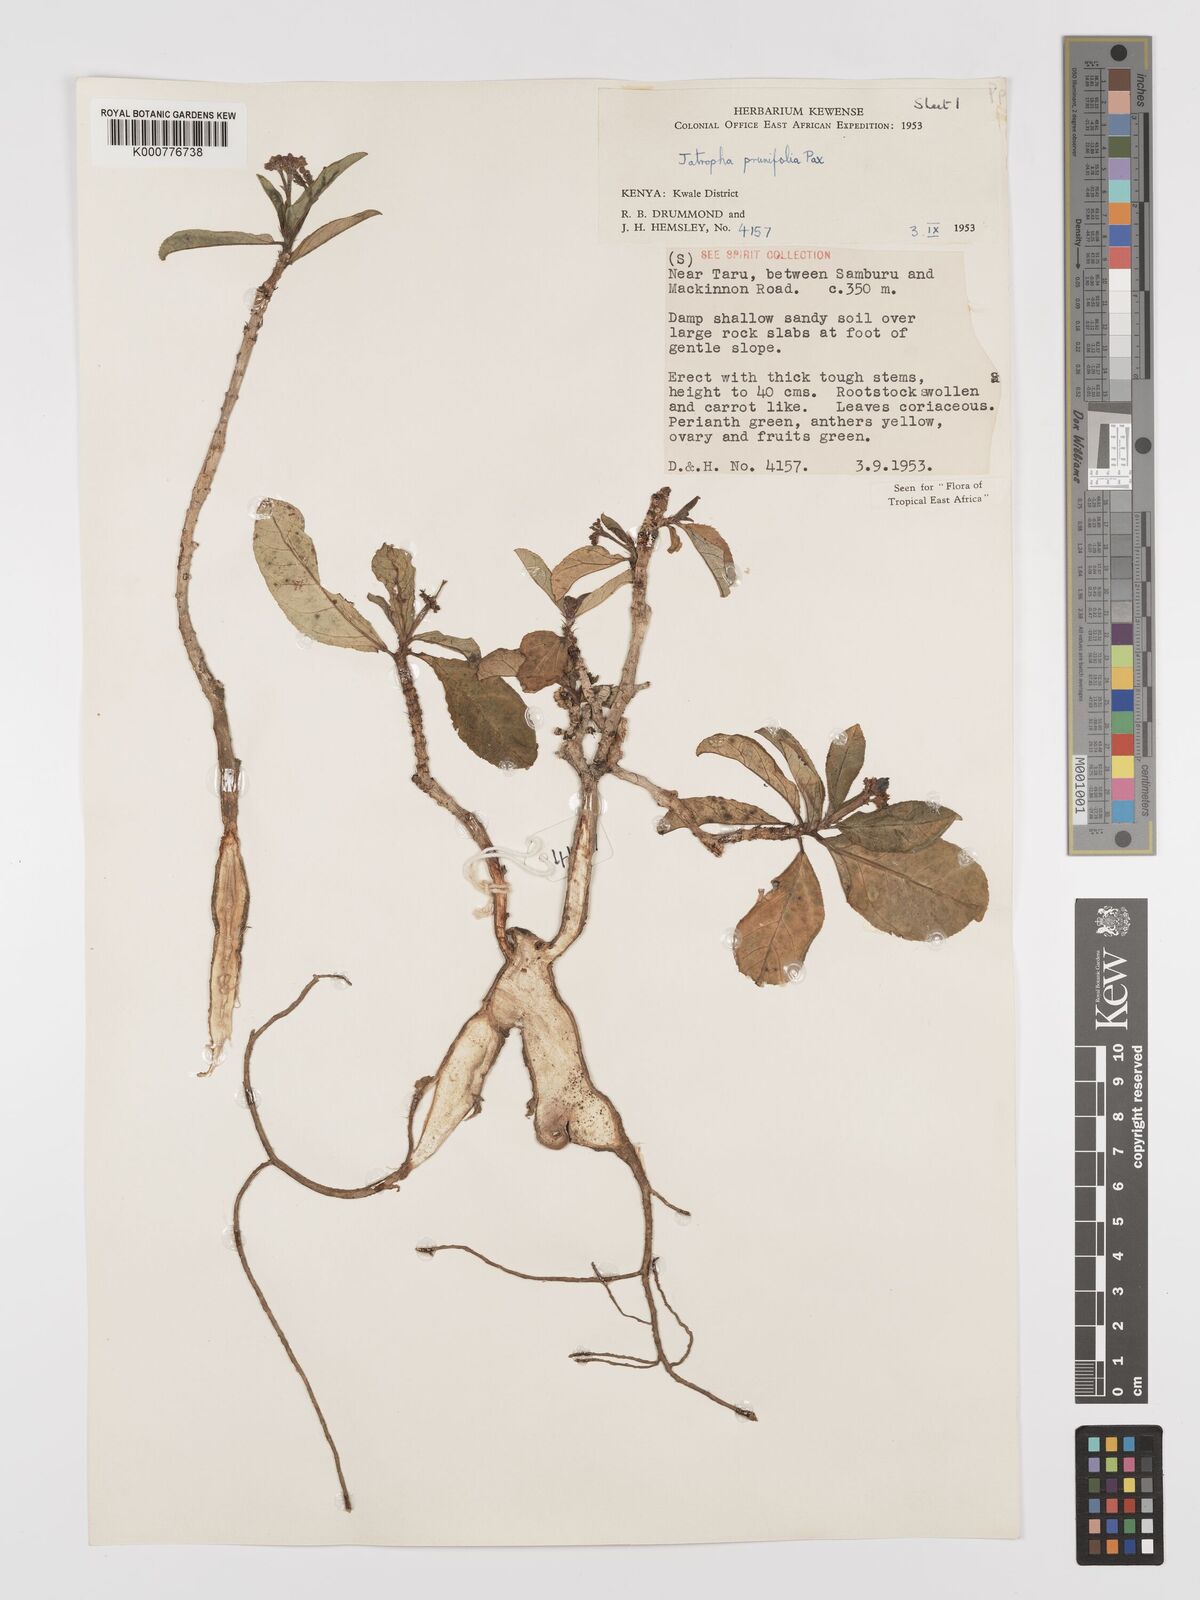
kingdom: Plantae
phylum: Tracheophyta
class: Magnoliopsida
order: Malpighiales
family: Euphorbiaceae
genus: Jatropha
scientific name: Jatropha
